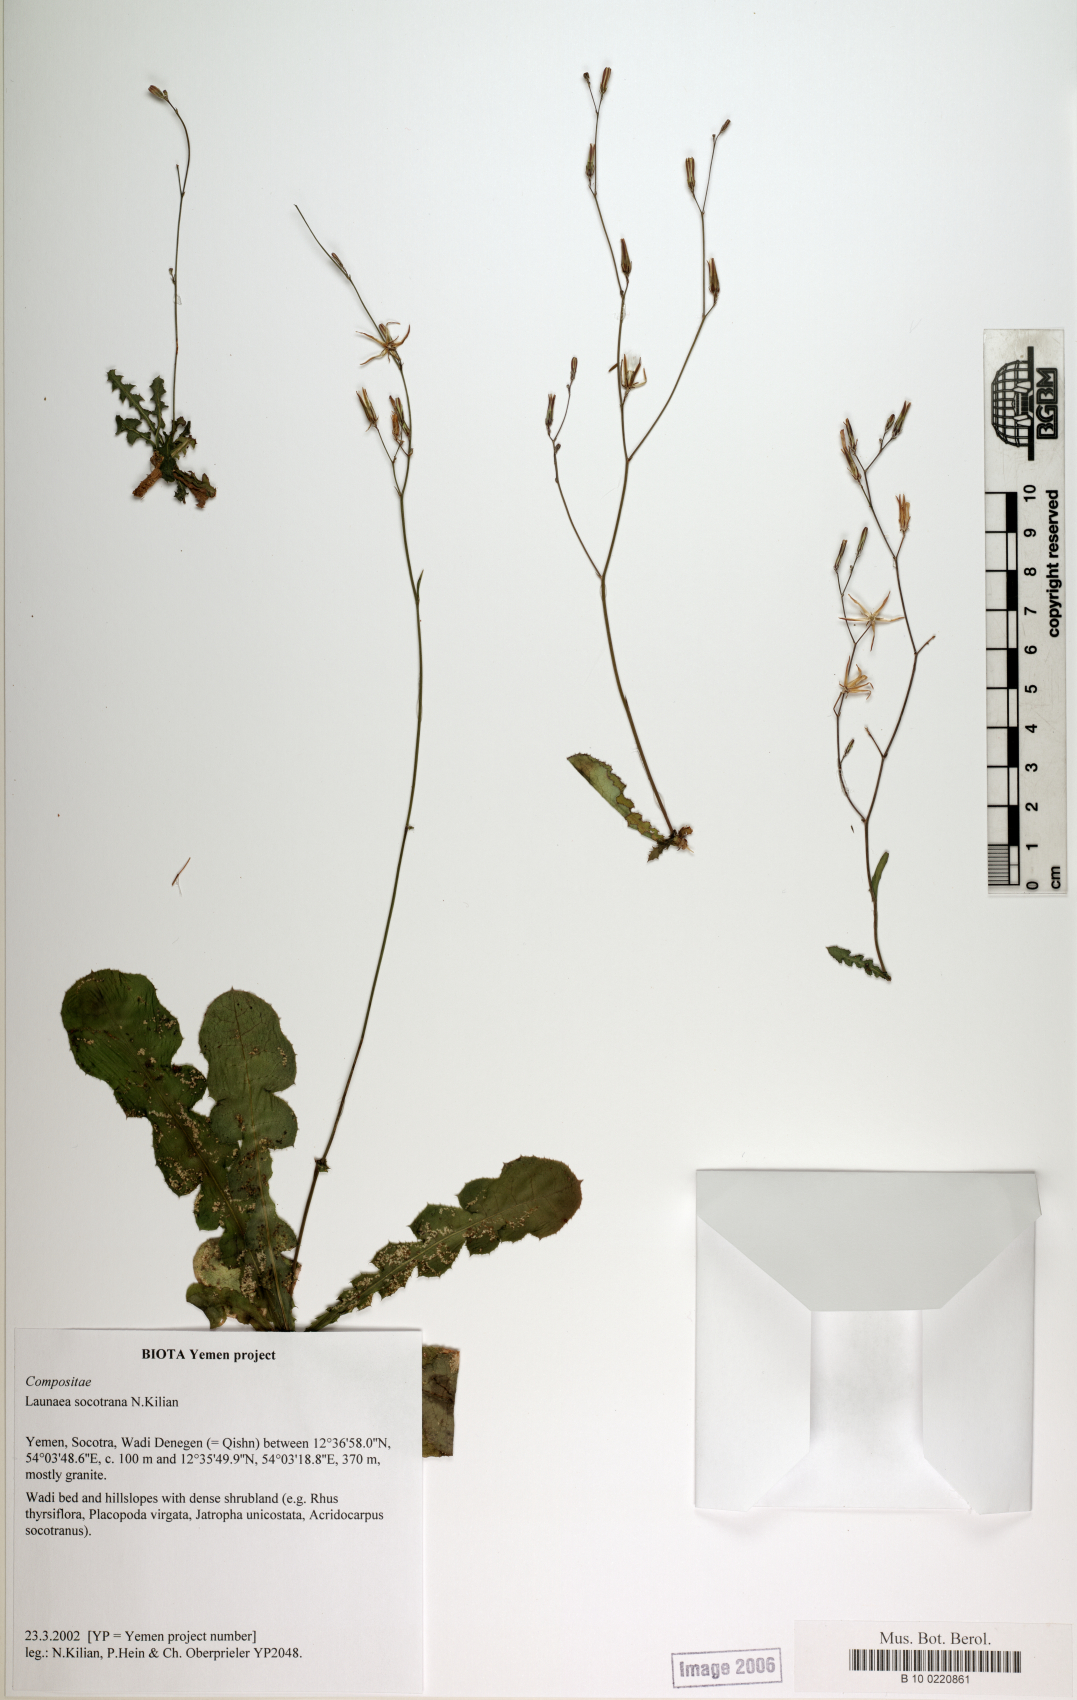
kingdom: Plantae
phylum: Tracheophyta
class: Magnoliopsida
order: Asterales
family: Asteraceae
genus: Launaea
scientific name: Launaea socotrana
